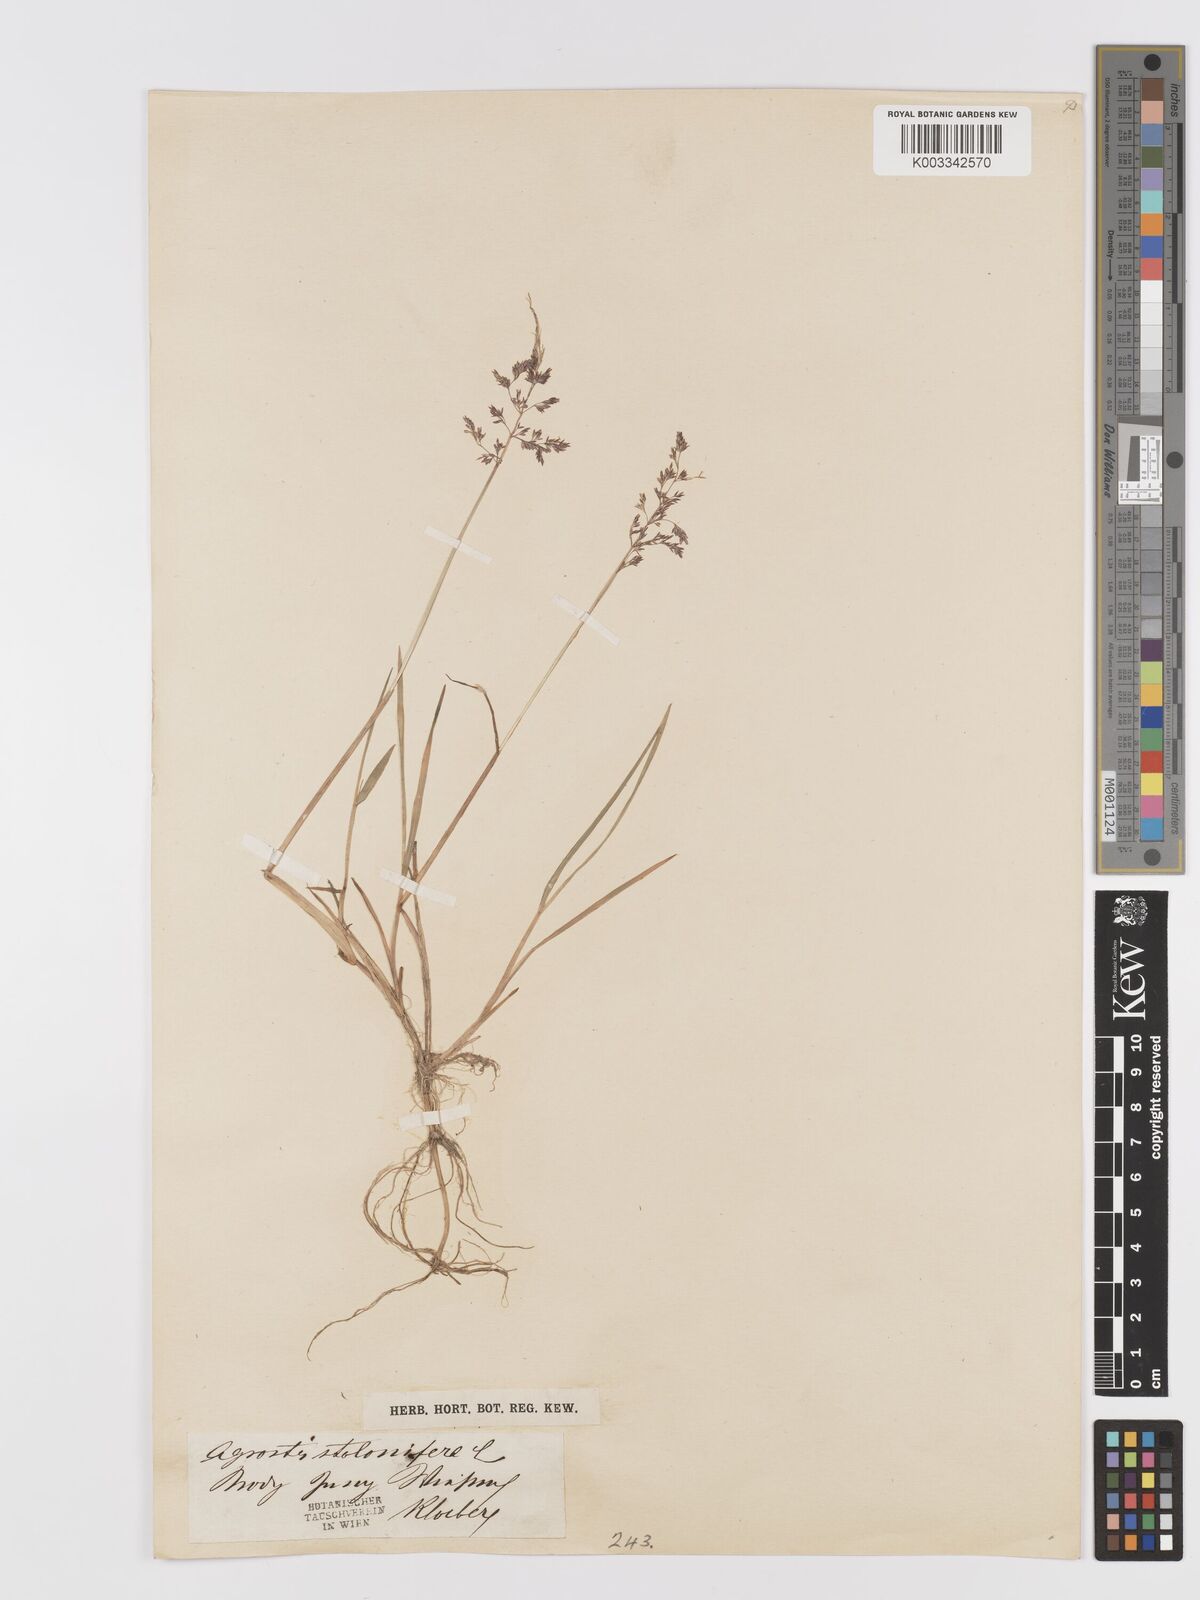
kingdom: Plantae
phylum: Tracheophyta
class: Liliopsida
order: Poales
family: Poaceae
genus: Agrostis
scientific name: Agrostis
